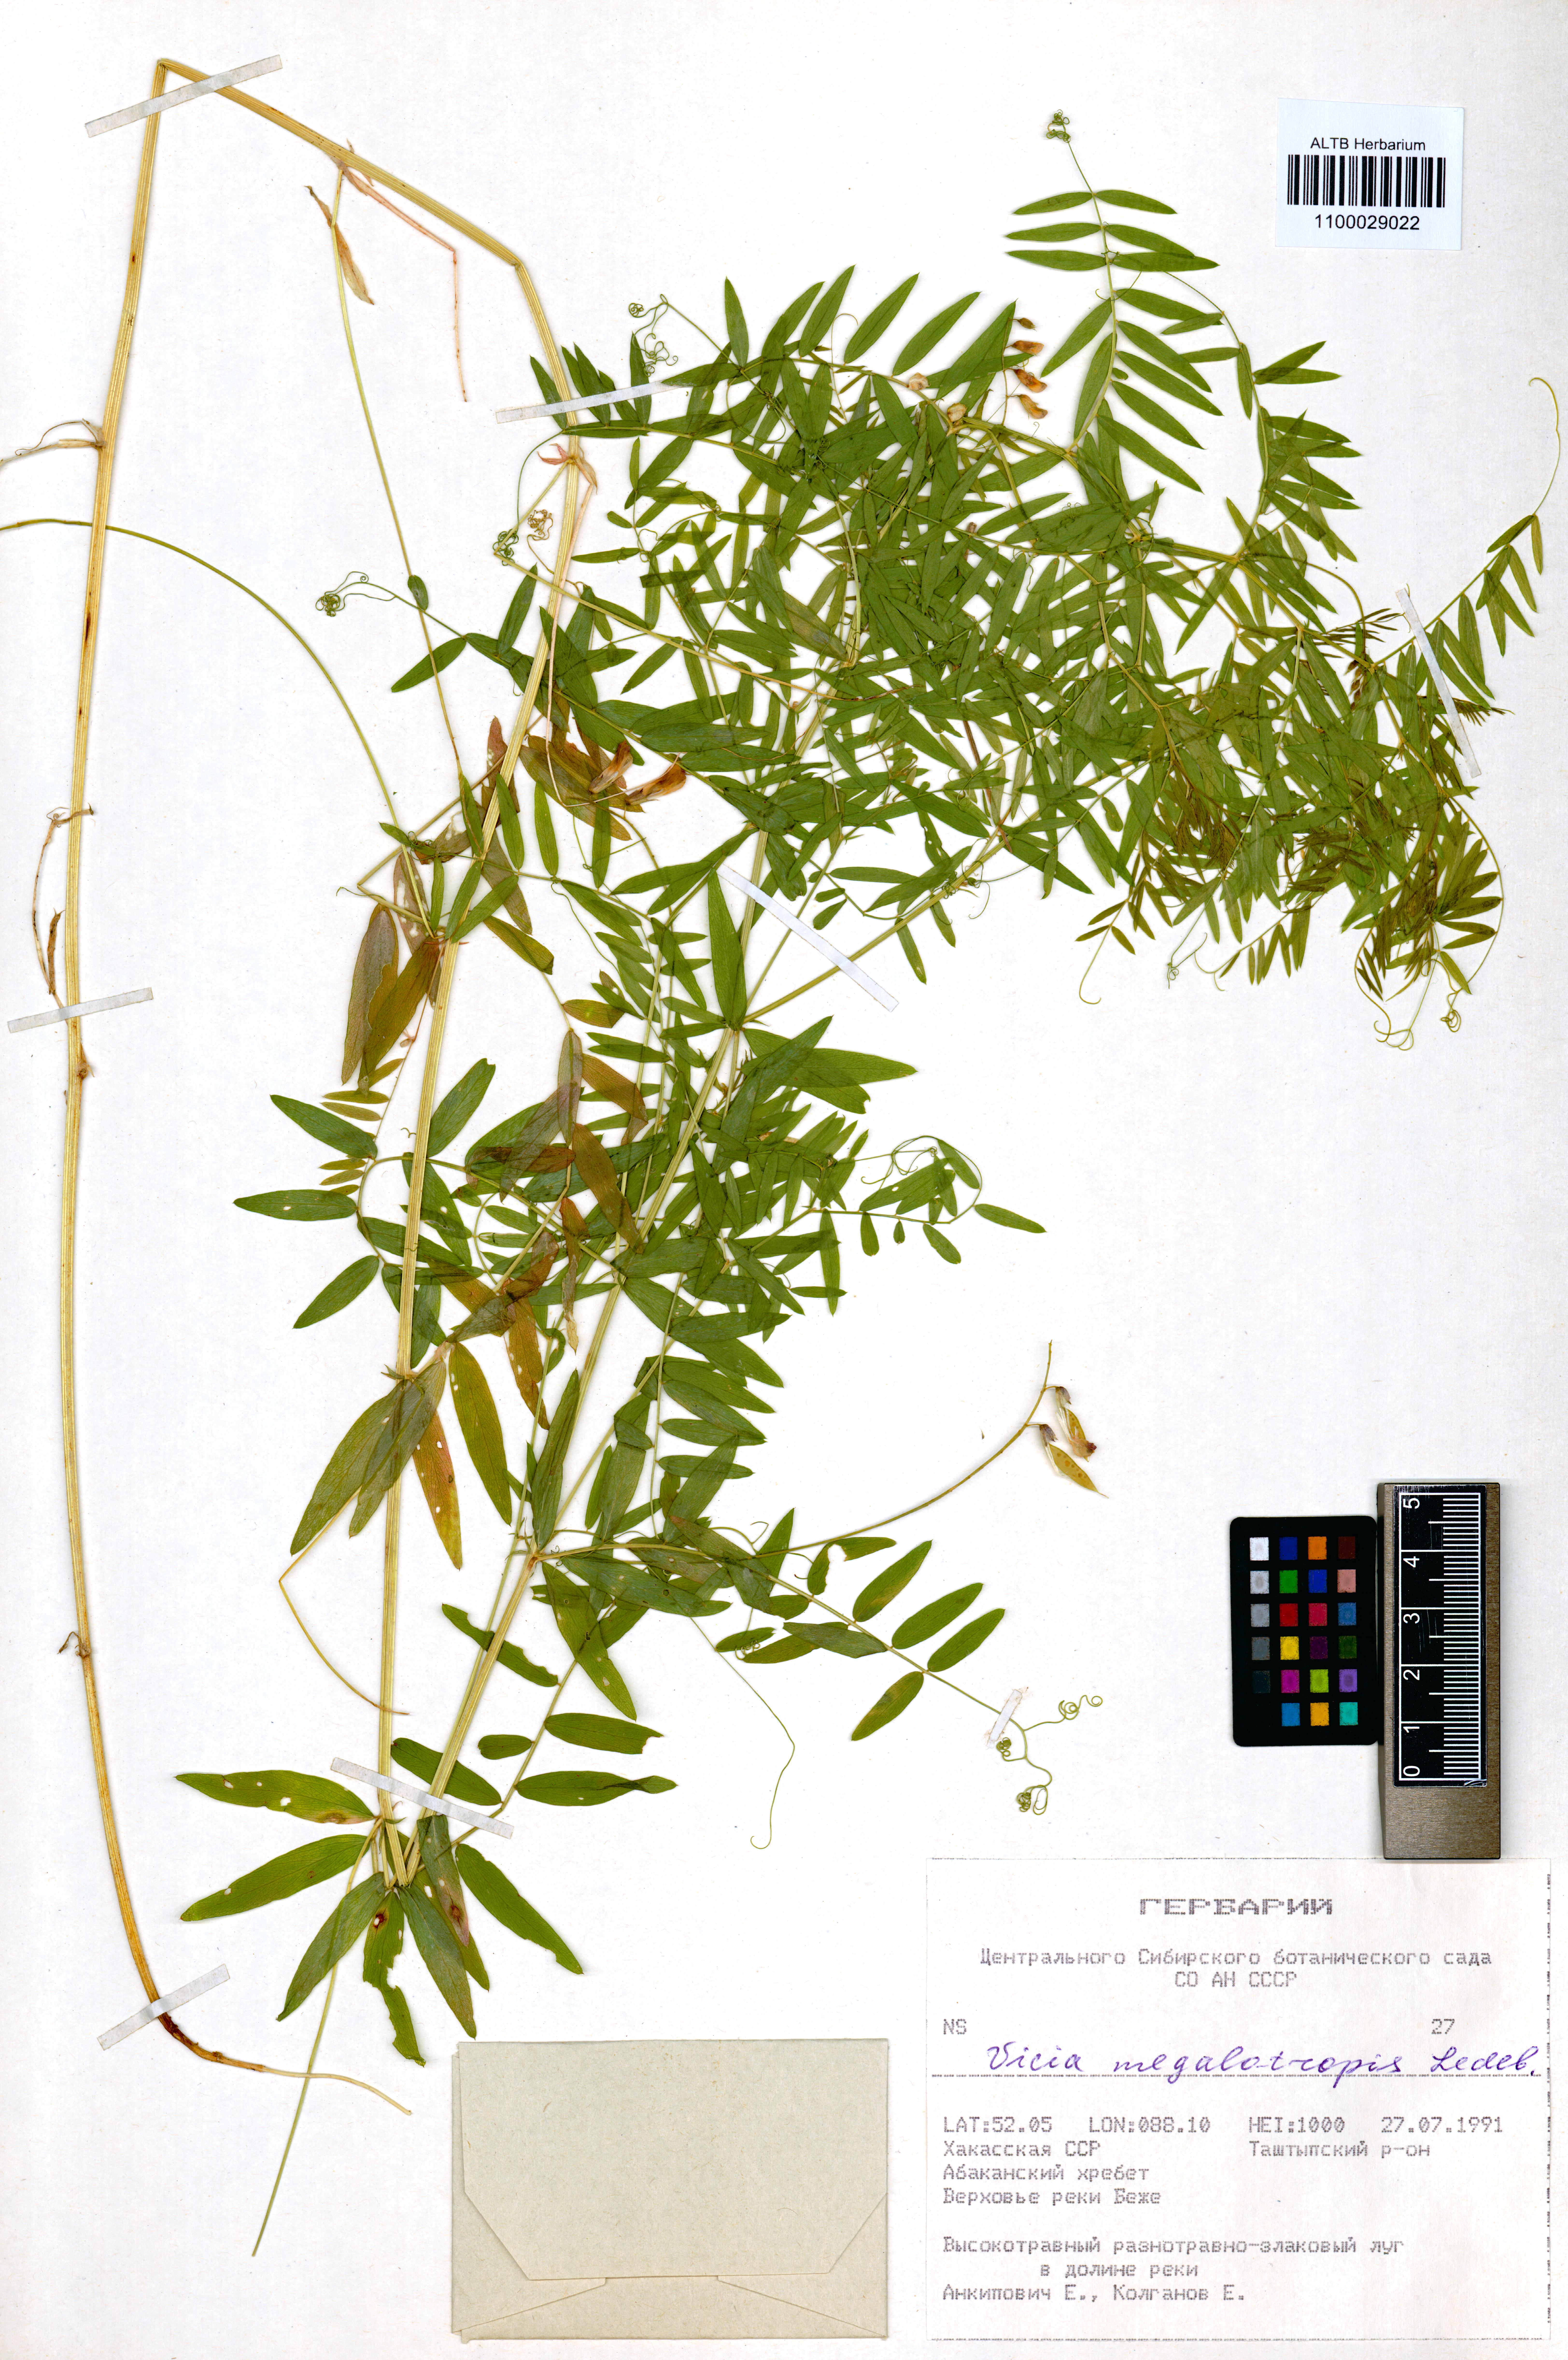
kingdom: Plantae
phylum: Tracheophyta
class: Magnoliopsida
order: Fabales
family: Fabaceae
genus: Vicia
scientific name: Vicia megalotropis
